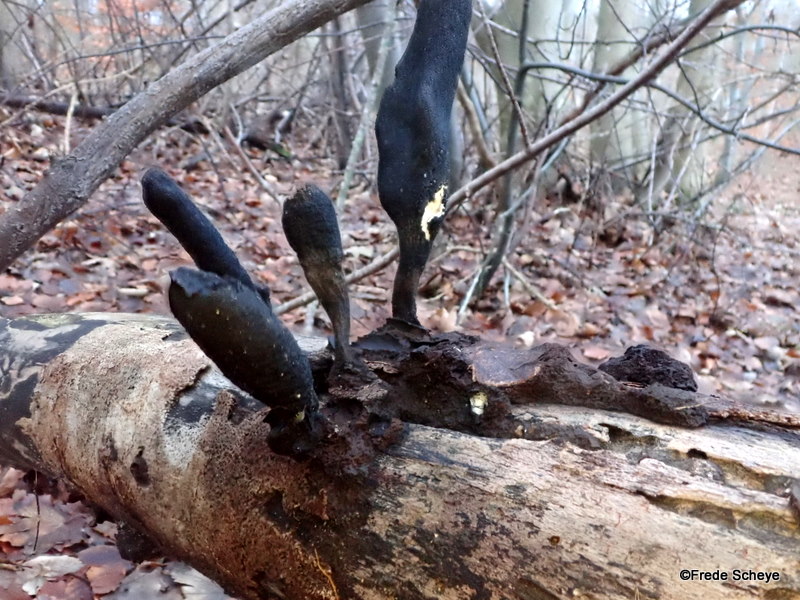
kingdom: Fungi
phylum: Ascomycota
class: Sordariomycetes
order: Xylariales
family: Xylariaceae
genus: Xylaria
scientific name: Xylaria longipes
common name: slank stødsvamp
